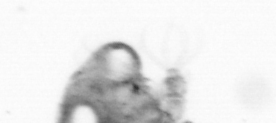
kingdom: Animalia
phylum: Arthropoda
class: Copepoda
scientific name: Copepoda
